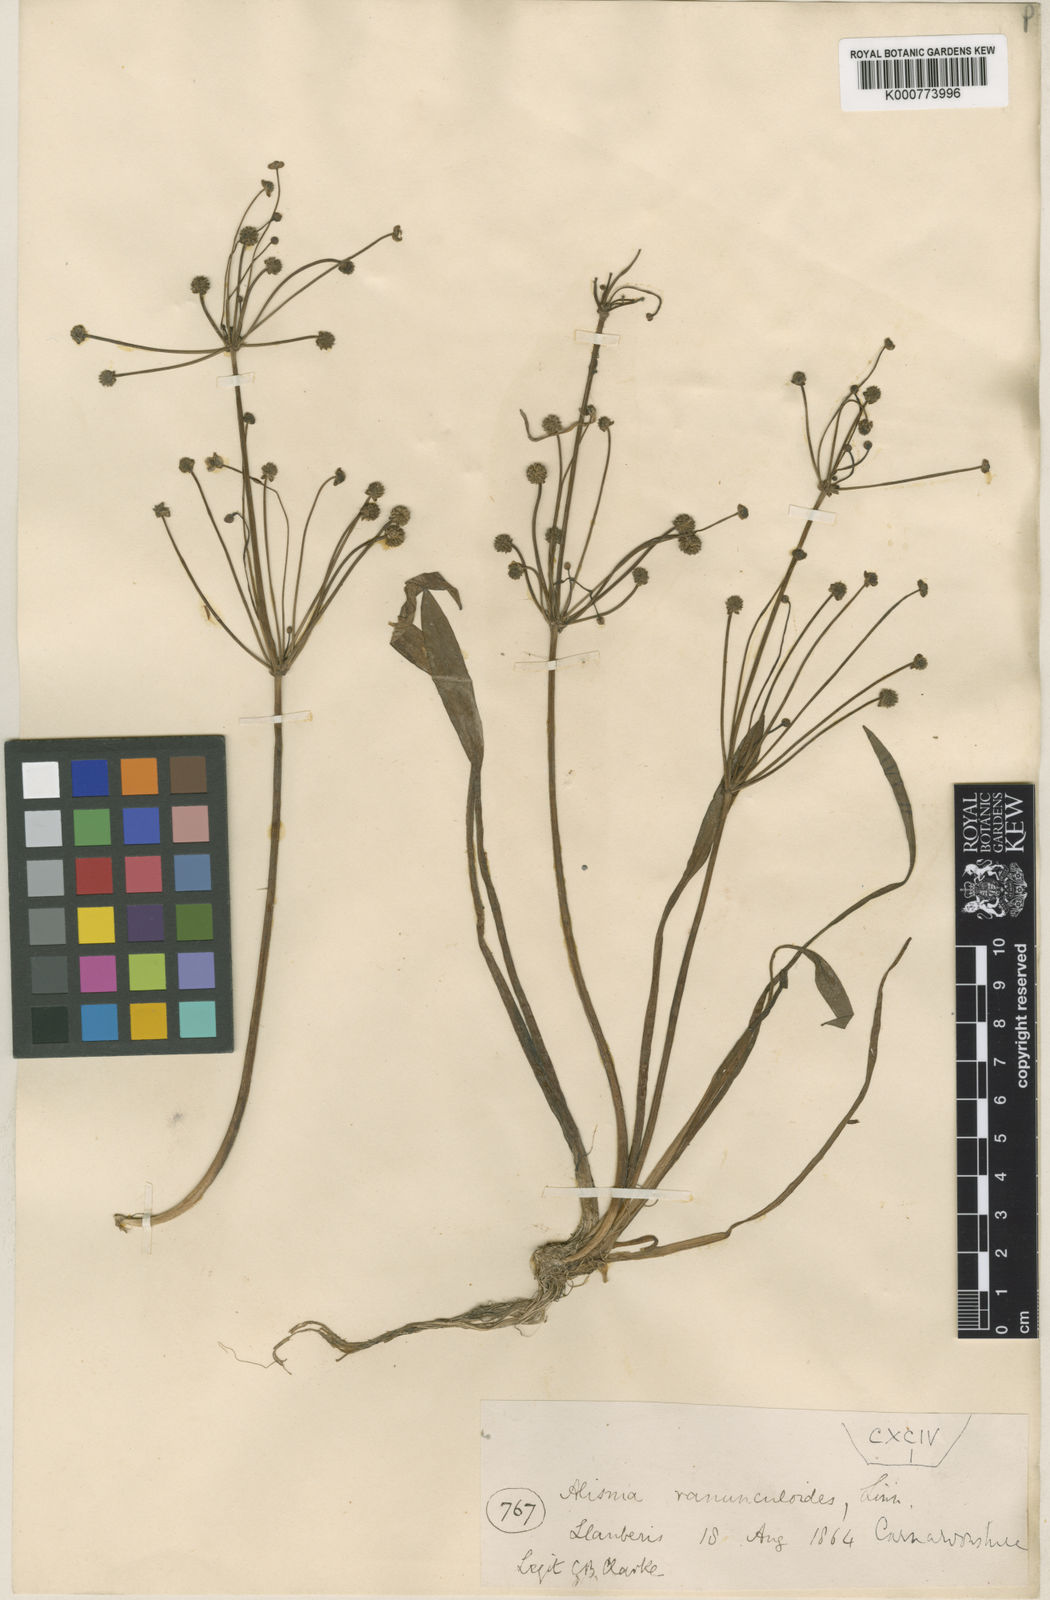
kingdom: Plantae
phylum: Tracheophyta
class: Liliopsida
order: Alismatales
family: Alismataceae
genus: Baldellia
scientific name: Baldellia ranunculoides
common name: Lesser water-plantain
